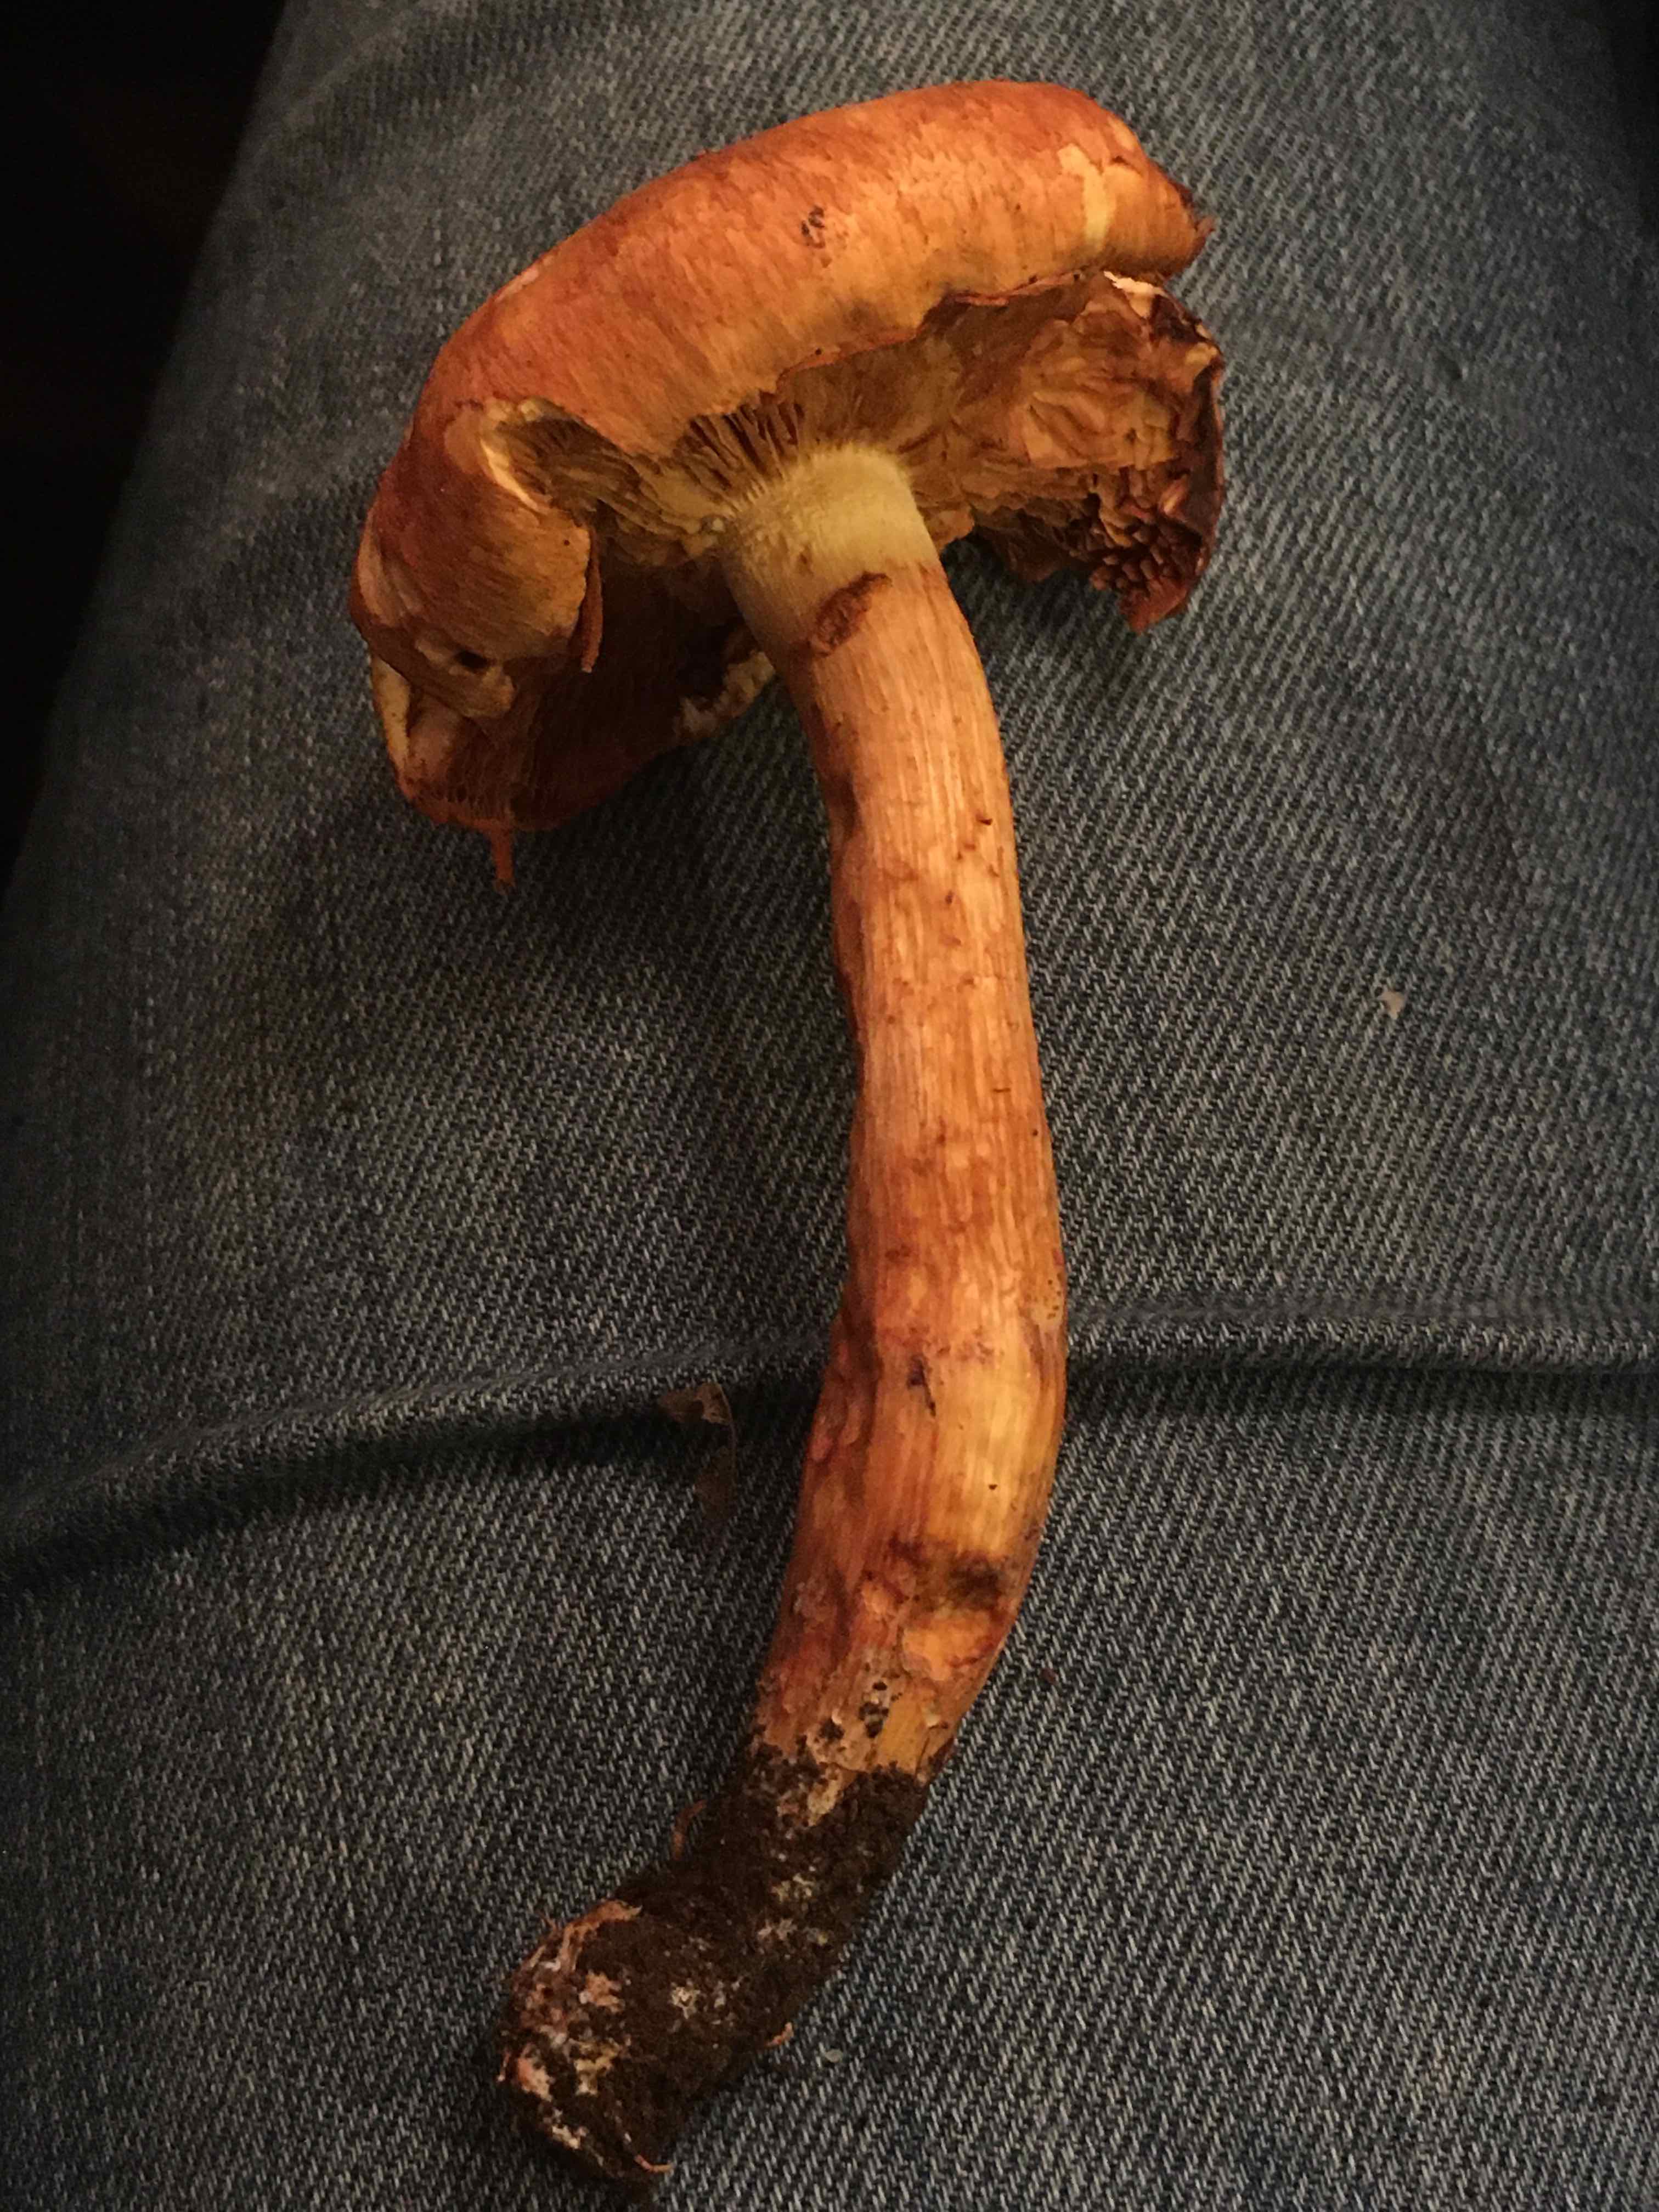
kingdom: Fungi
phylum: Basidiomycota
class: Agaricomycetes
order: Agaricales
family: Hymenogastraceae
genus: Gymnopilus
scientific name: Gymnopilus spectabilis
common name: fibret flammehat
